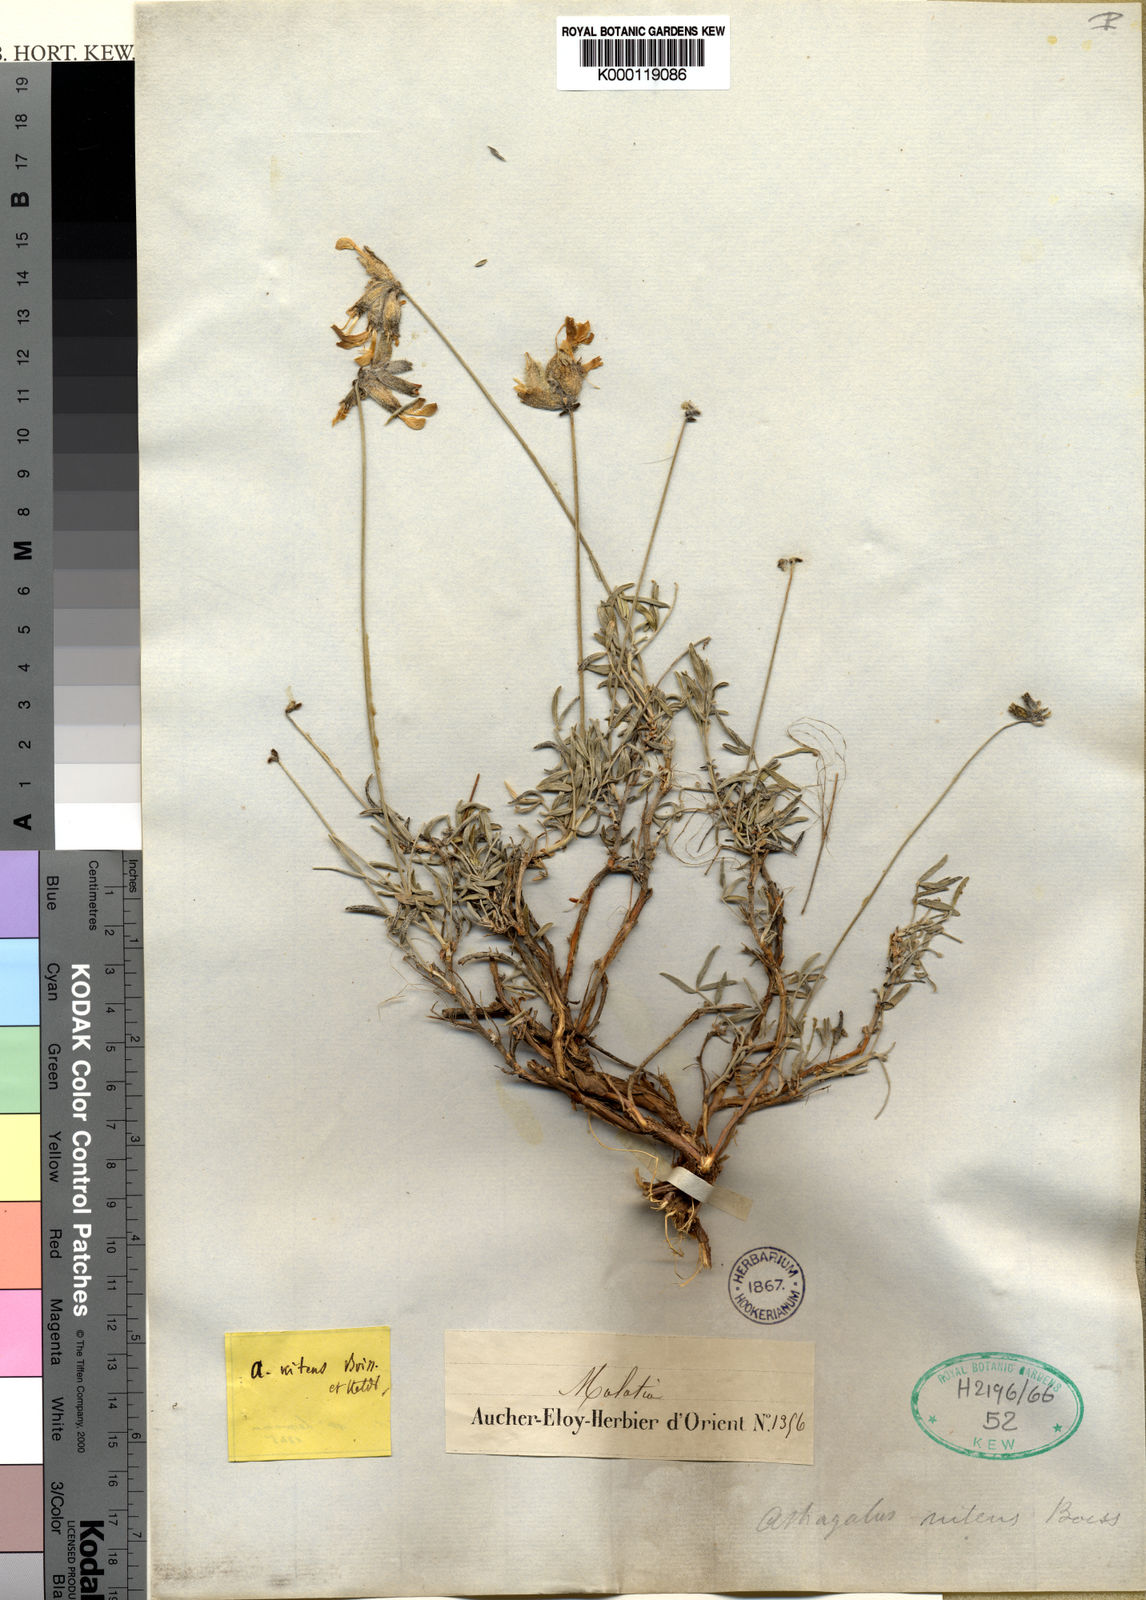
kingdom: Plantae
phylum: Tracheophyta
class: Magnoliopsida
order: Fabales
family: Fabaceae
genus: Astragalus
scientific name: Astragalus
